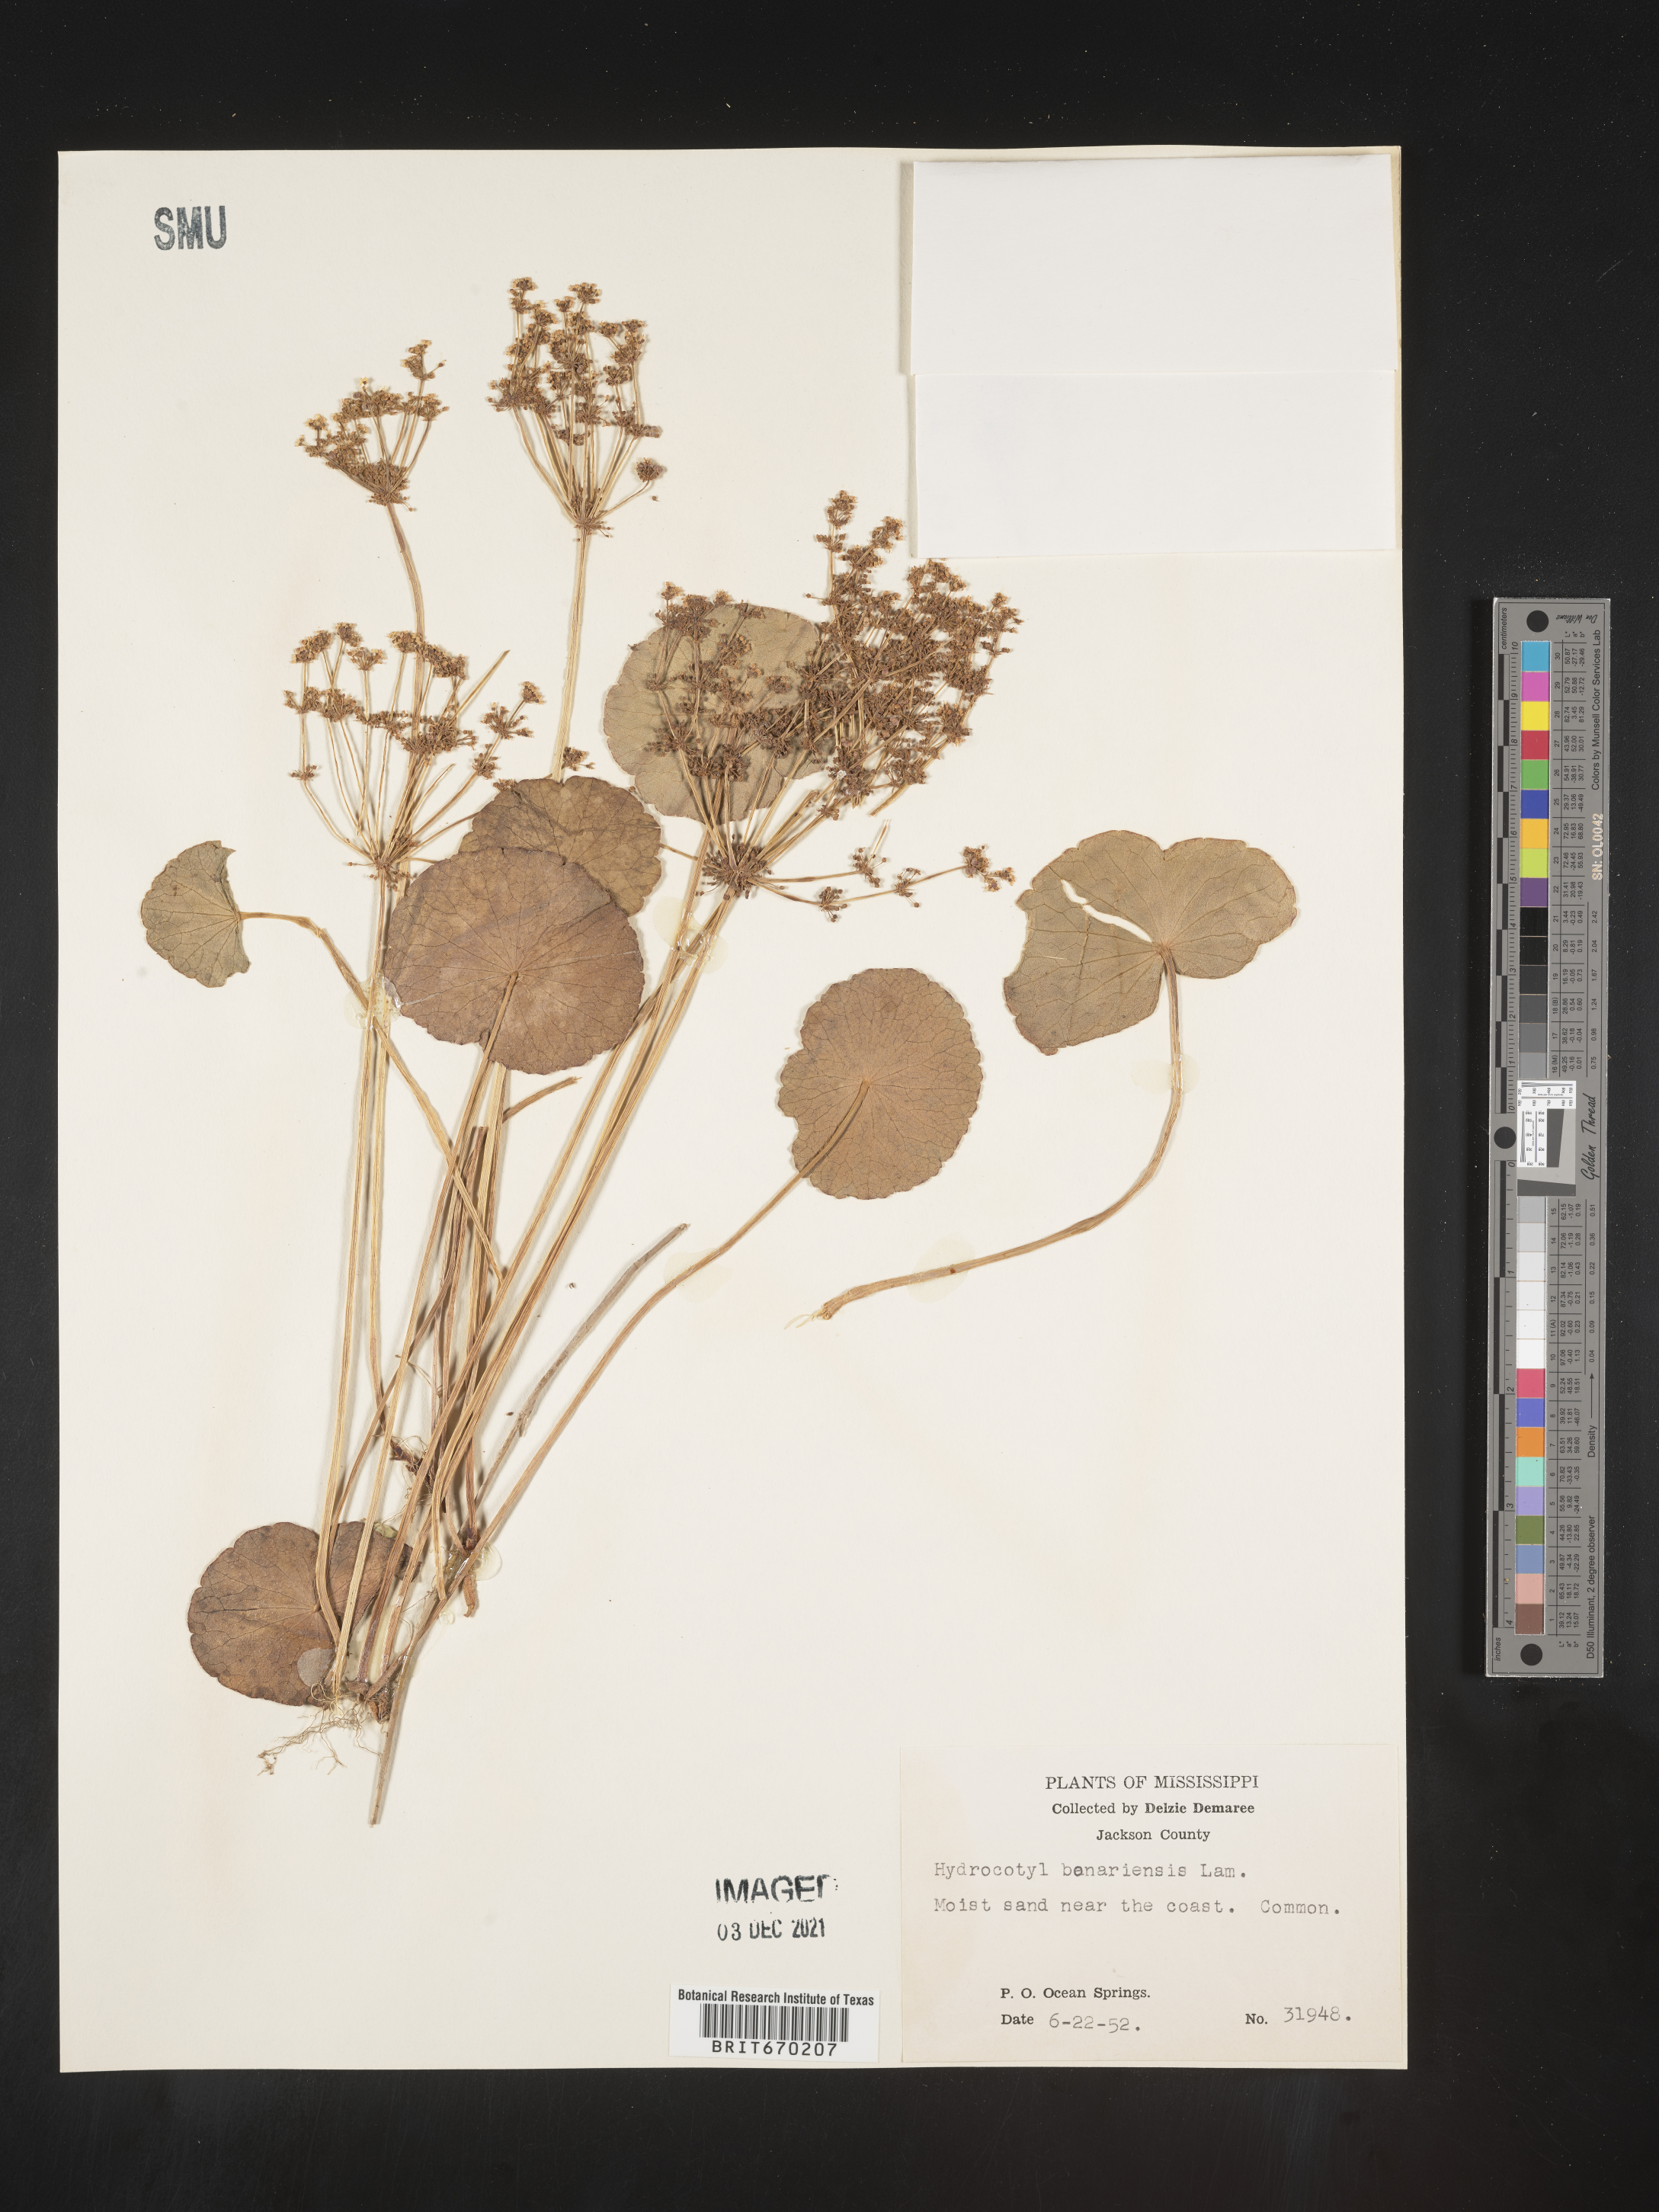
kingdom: Plantae
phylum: Tracheophyta
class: Magnoliopsida
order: Apiales
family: Araliaceae
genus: Hydrocotyle
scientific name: Hydrocotyle bonariensis
